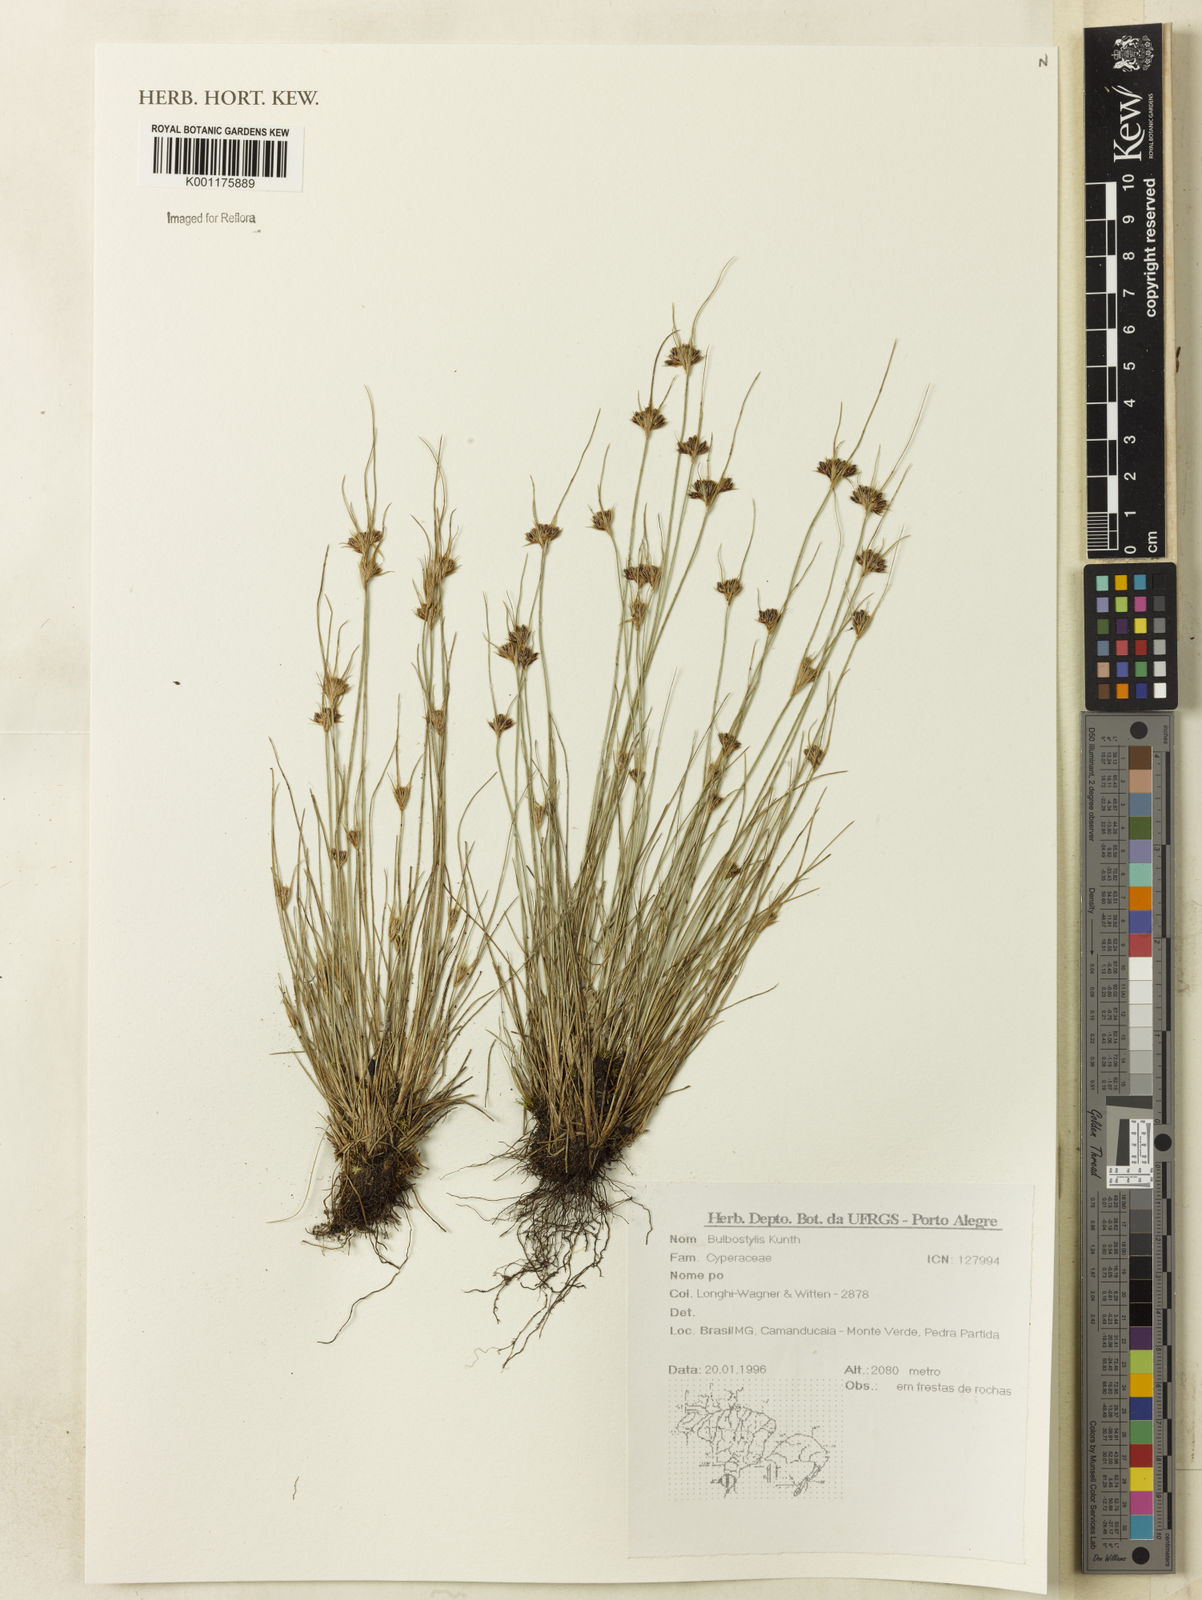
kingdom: Plantae
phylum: Tracheophyta
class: Liliopsida
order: Poales
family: Cyperaceae
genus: Bulbostylis
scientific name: Bulbostylis
